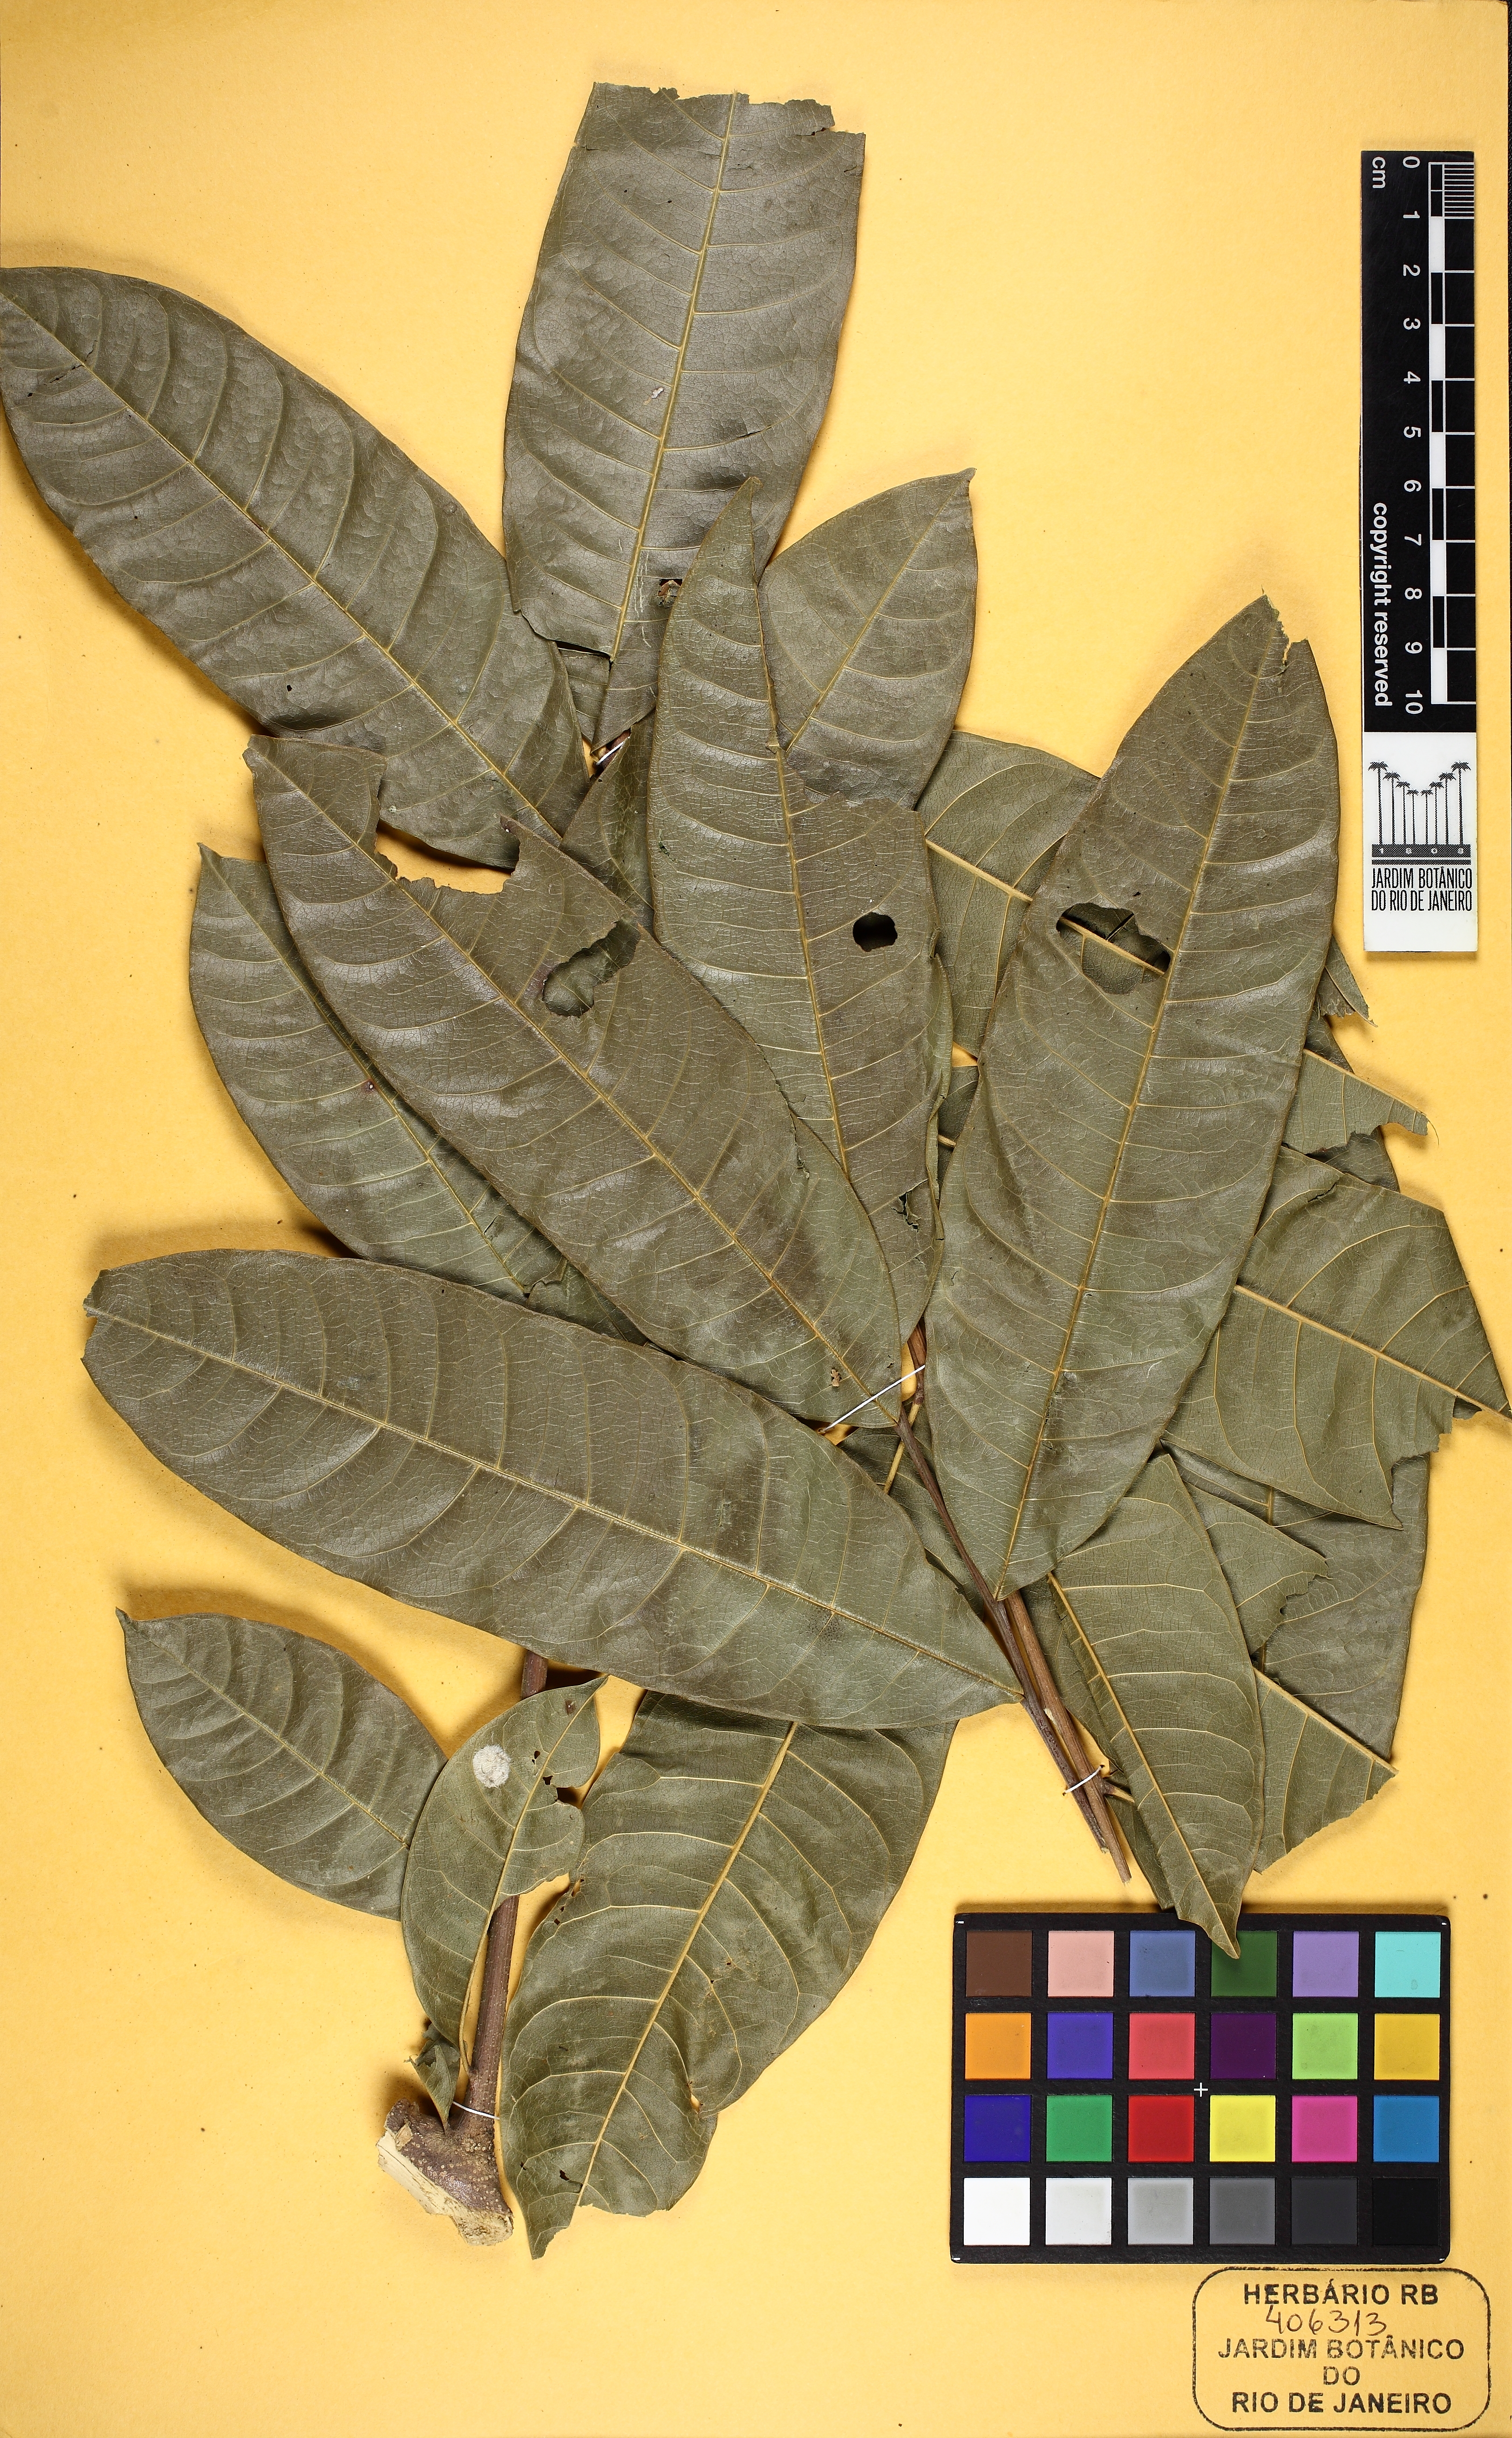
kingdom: Plantae
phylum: Tracheophyta
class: Magnoliopsida
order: Sapindales
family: Sapindaceae
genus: Pseudima
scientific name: Pseudima
